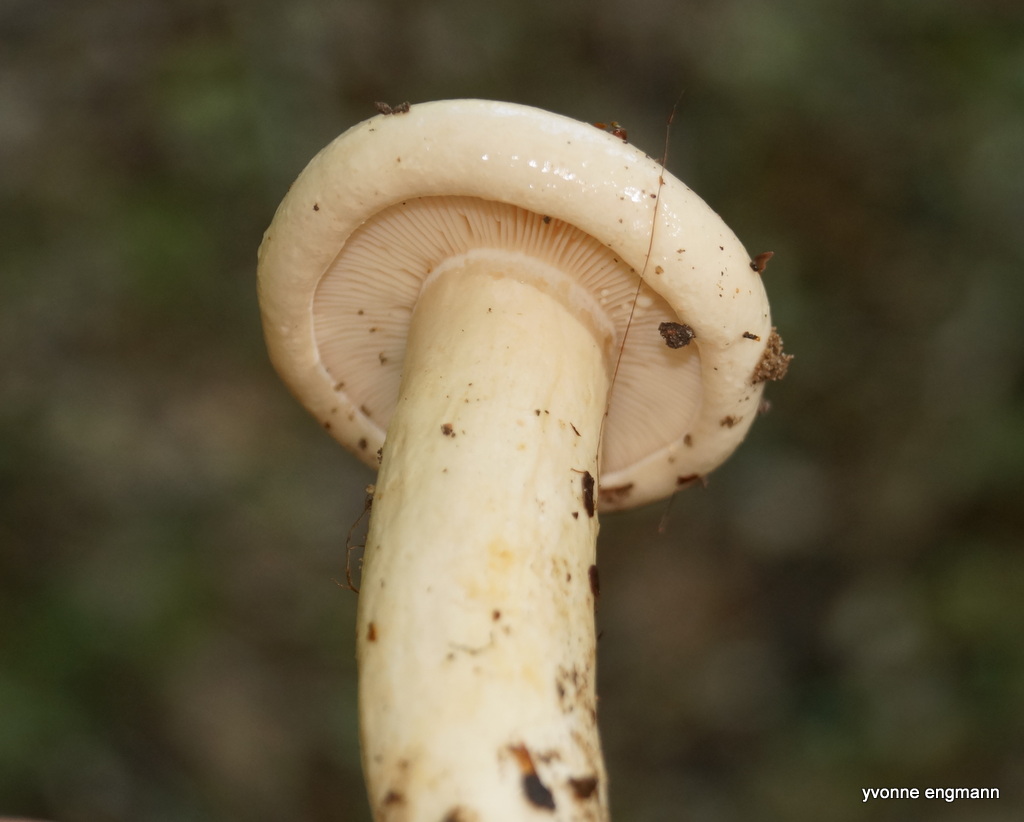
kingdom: Fungi
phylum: Basidiomycota
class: Agaricomycetes
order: Russulales
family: Russulaceae
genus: Lactarius
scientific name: Lactarius pallidus
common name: bleg mælkehat
